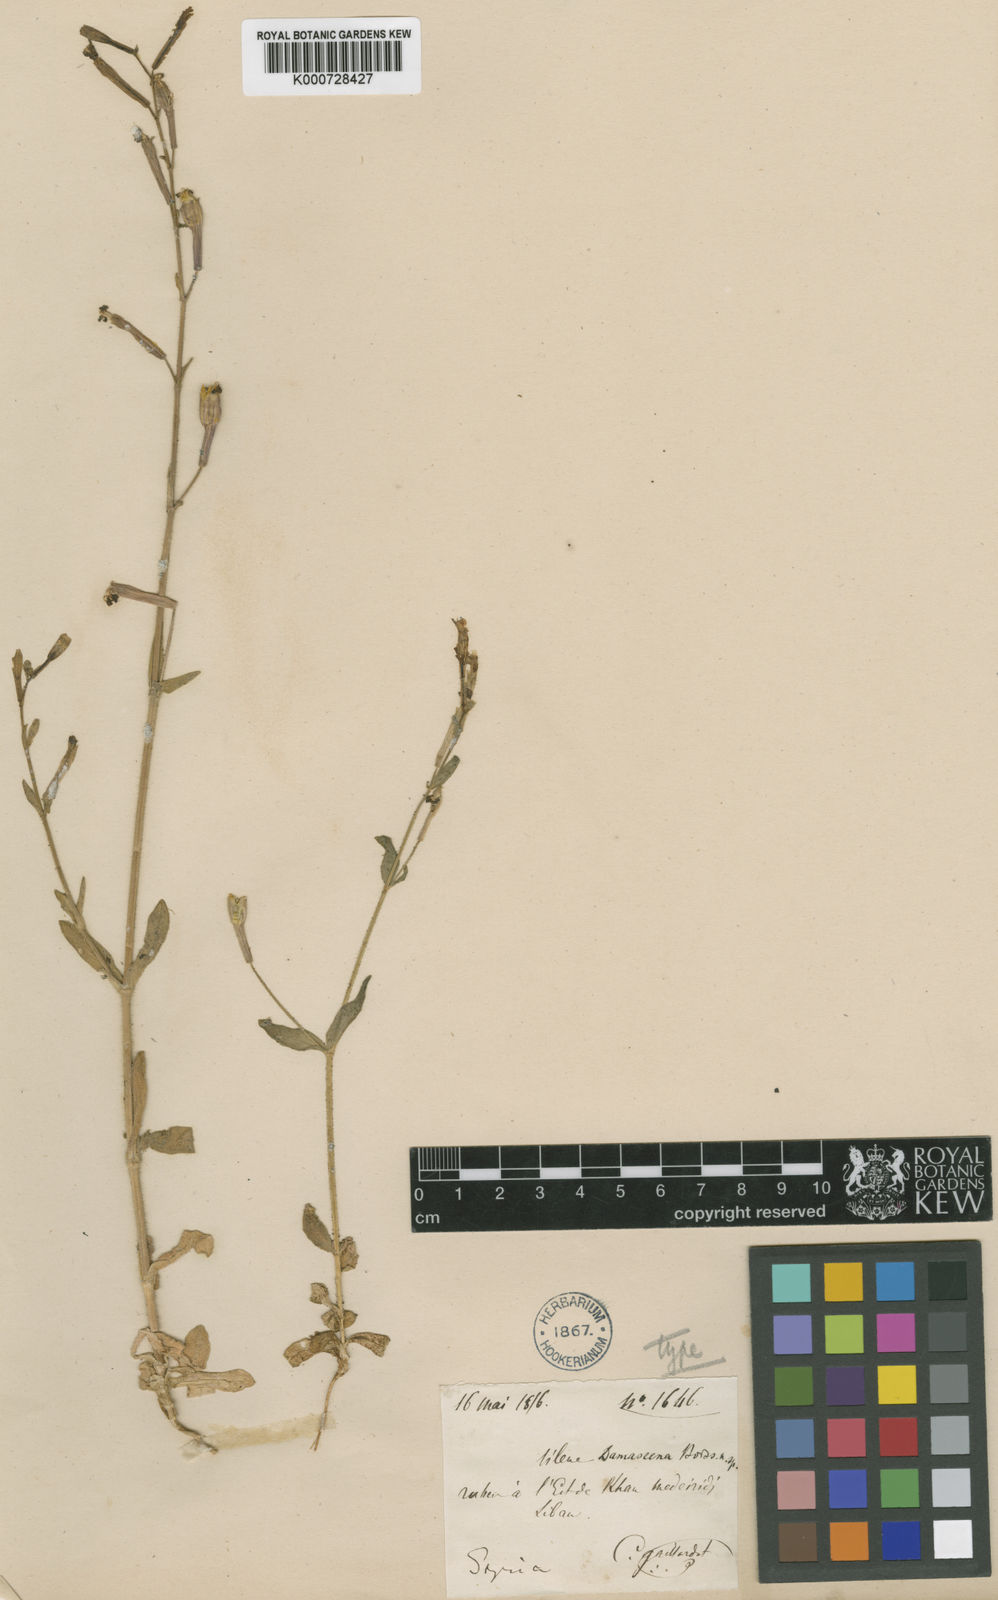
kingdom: Plantae
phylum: Tracheophyta
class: Magnoliopsida
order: Caryophyllales
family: Caryophyllaceae
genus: Silene
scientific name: Silene damascena
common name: Damascus catchfly
